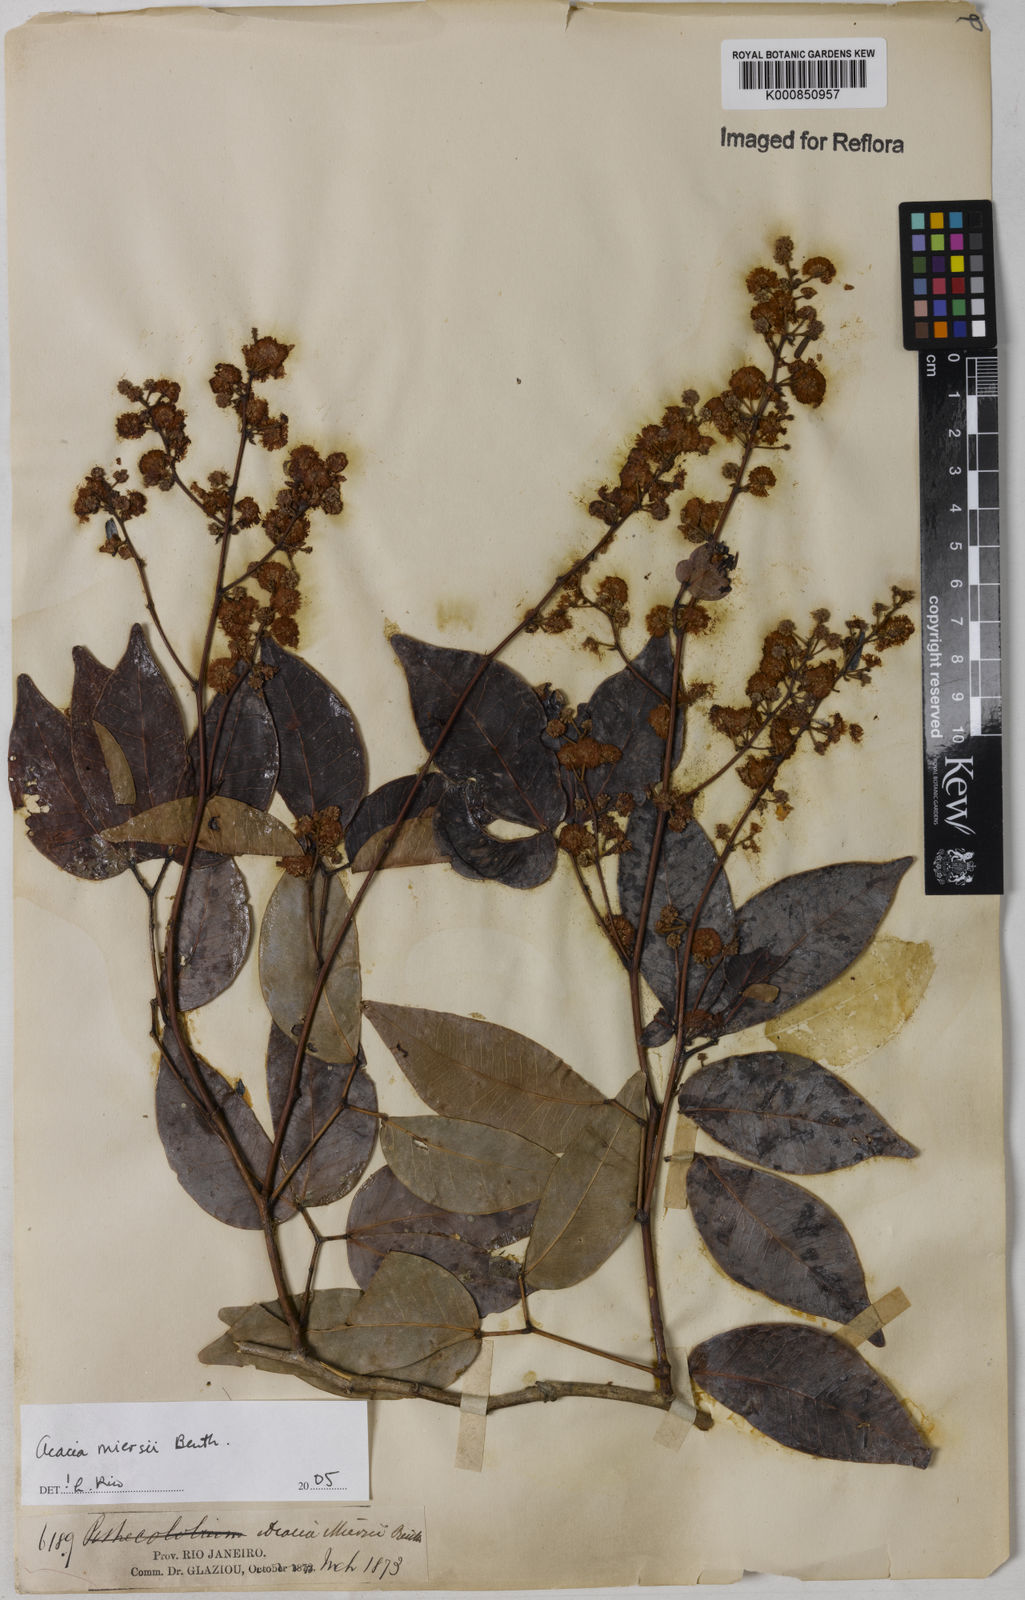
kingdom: Plantae
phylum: Tracheophyta
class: Magnoliopsida
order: Fabales
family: Fabaceae
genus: Parasenegalia
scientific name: Parasenegalia miersii
